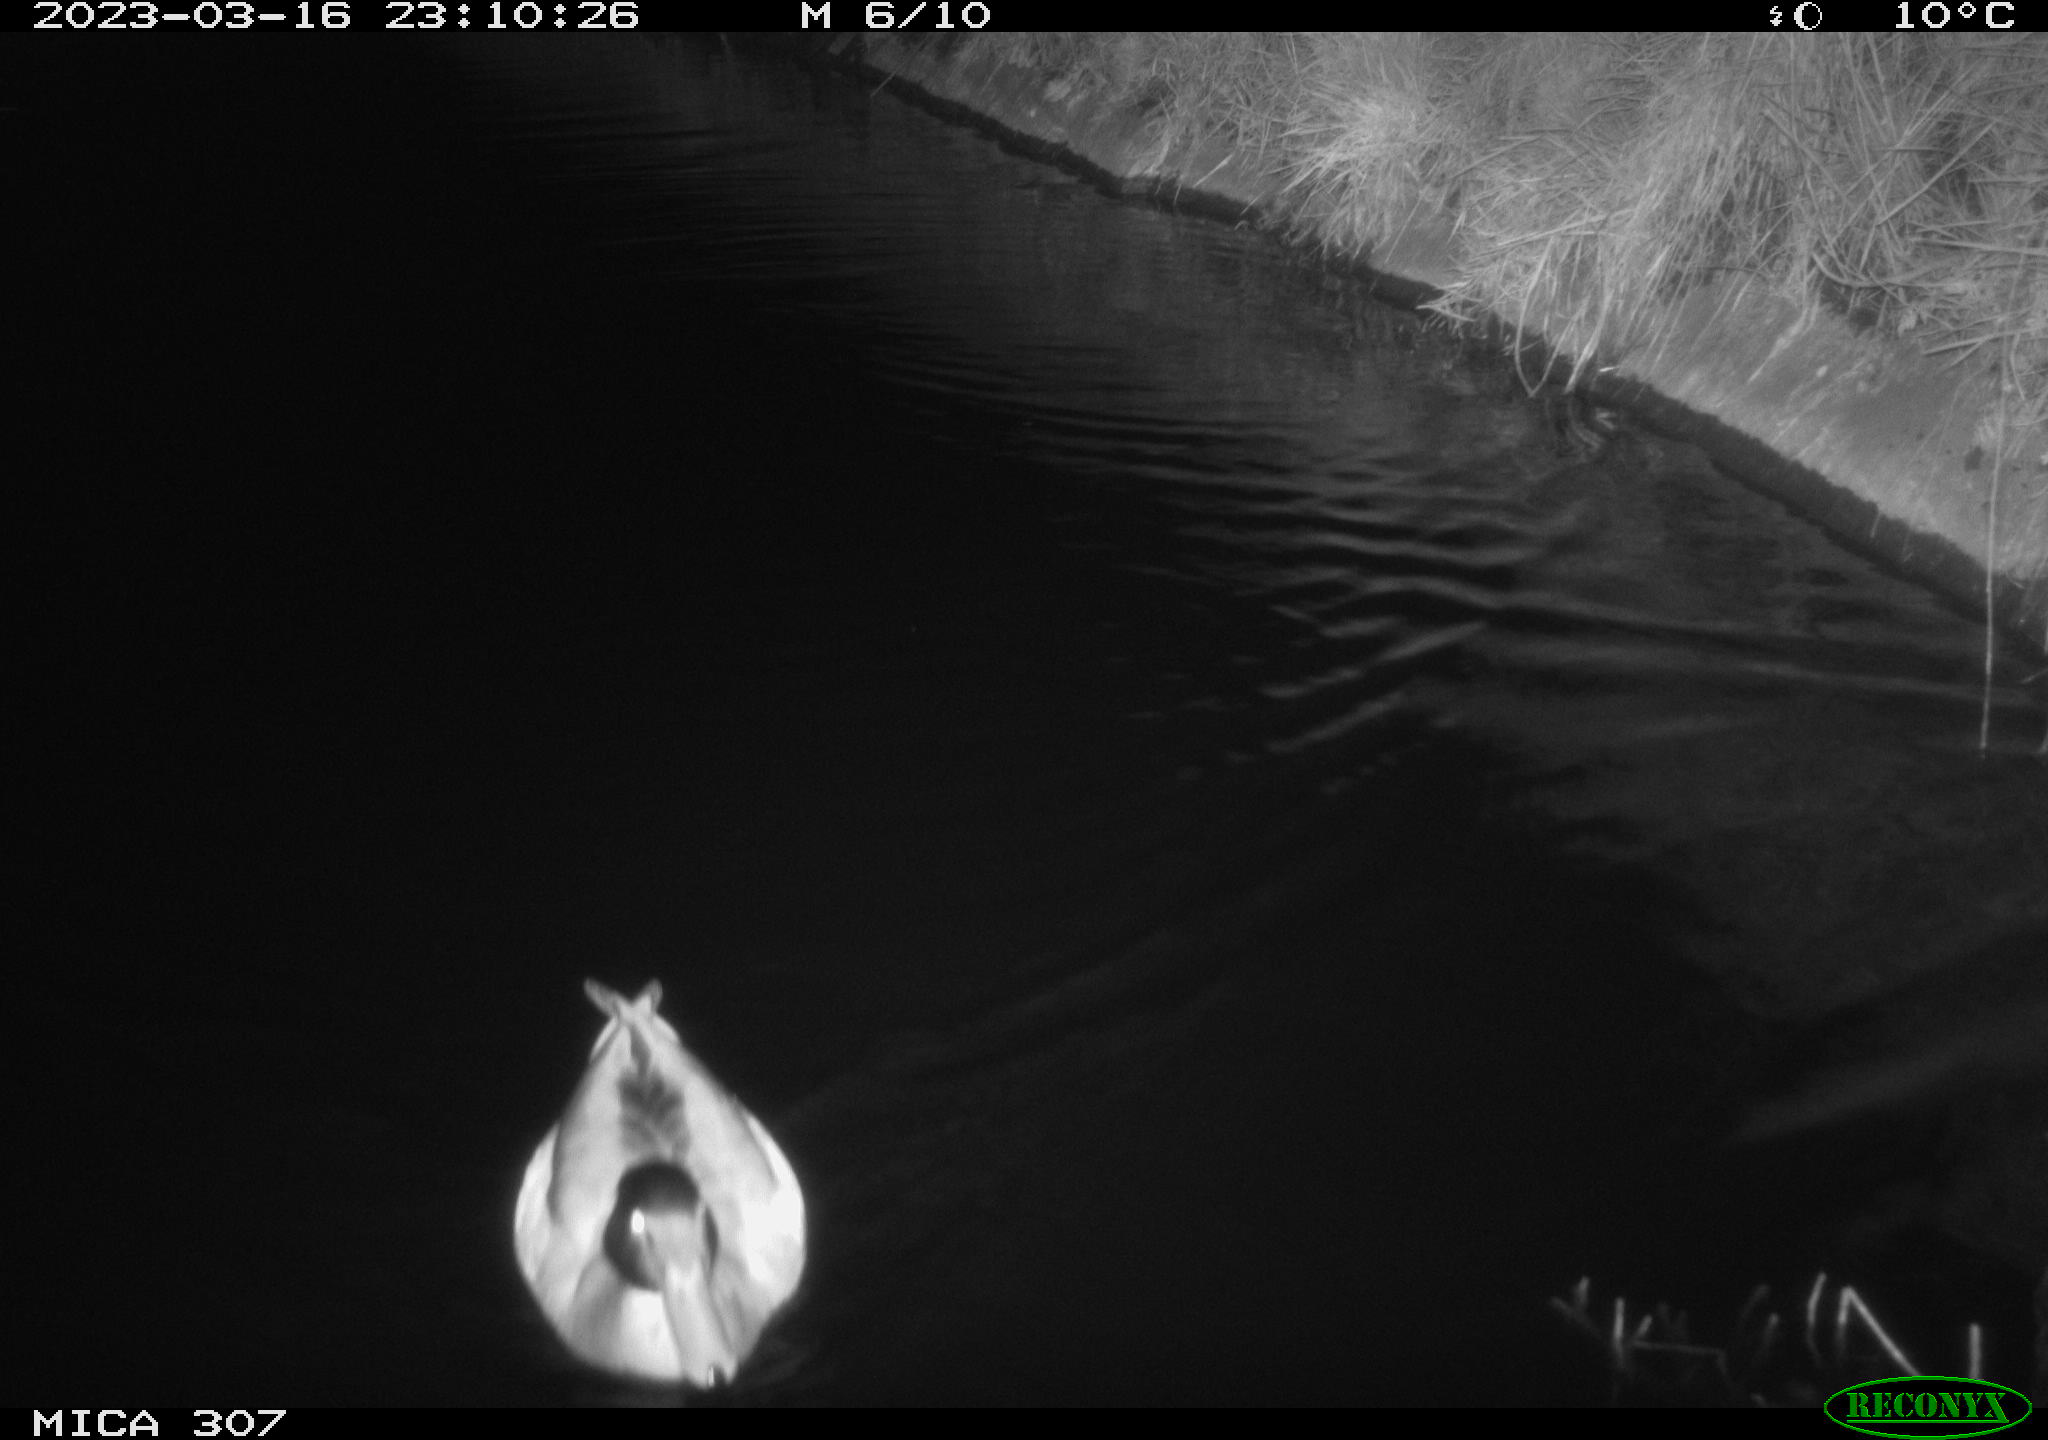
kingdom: Animalia
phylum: Chordata
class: Aves
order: Anseriformes
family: Anatidae
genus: Anas
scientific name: Anas
